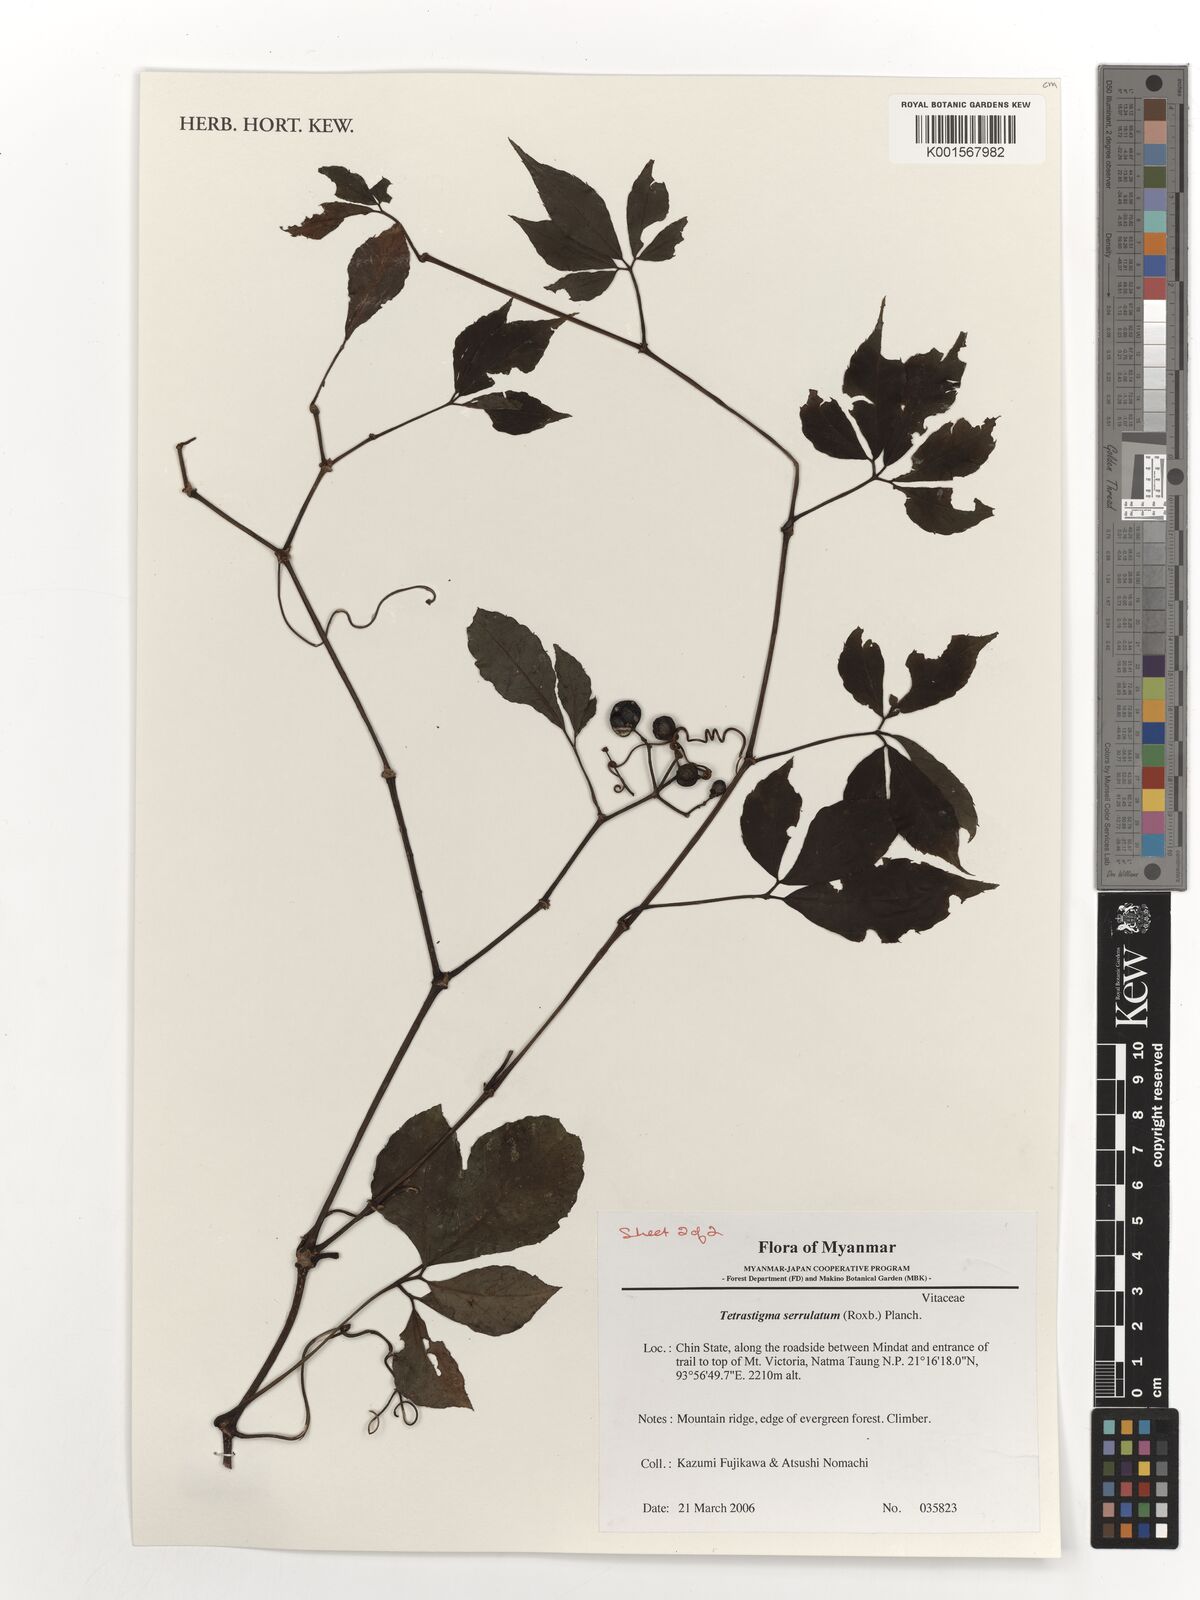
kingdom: Plantae
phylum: Tracheophyta
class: Magnoliopsida
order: Vitales
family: Vitaceae
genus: Tetrastigma
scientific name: Tetrastigma serrulatum
